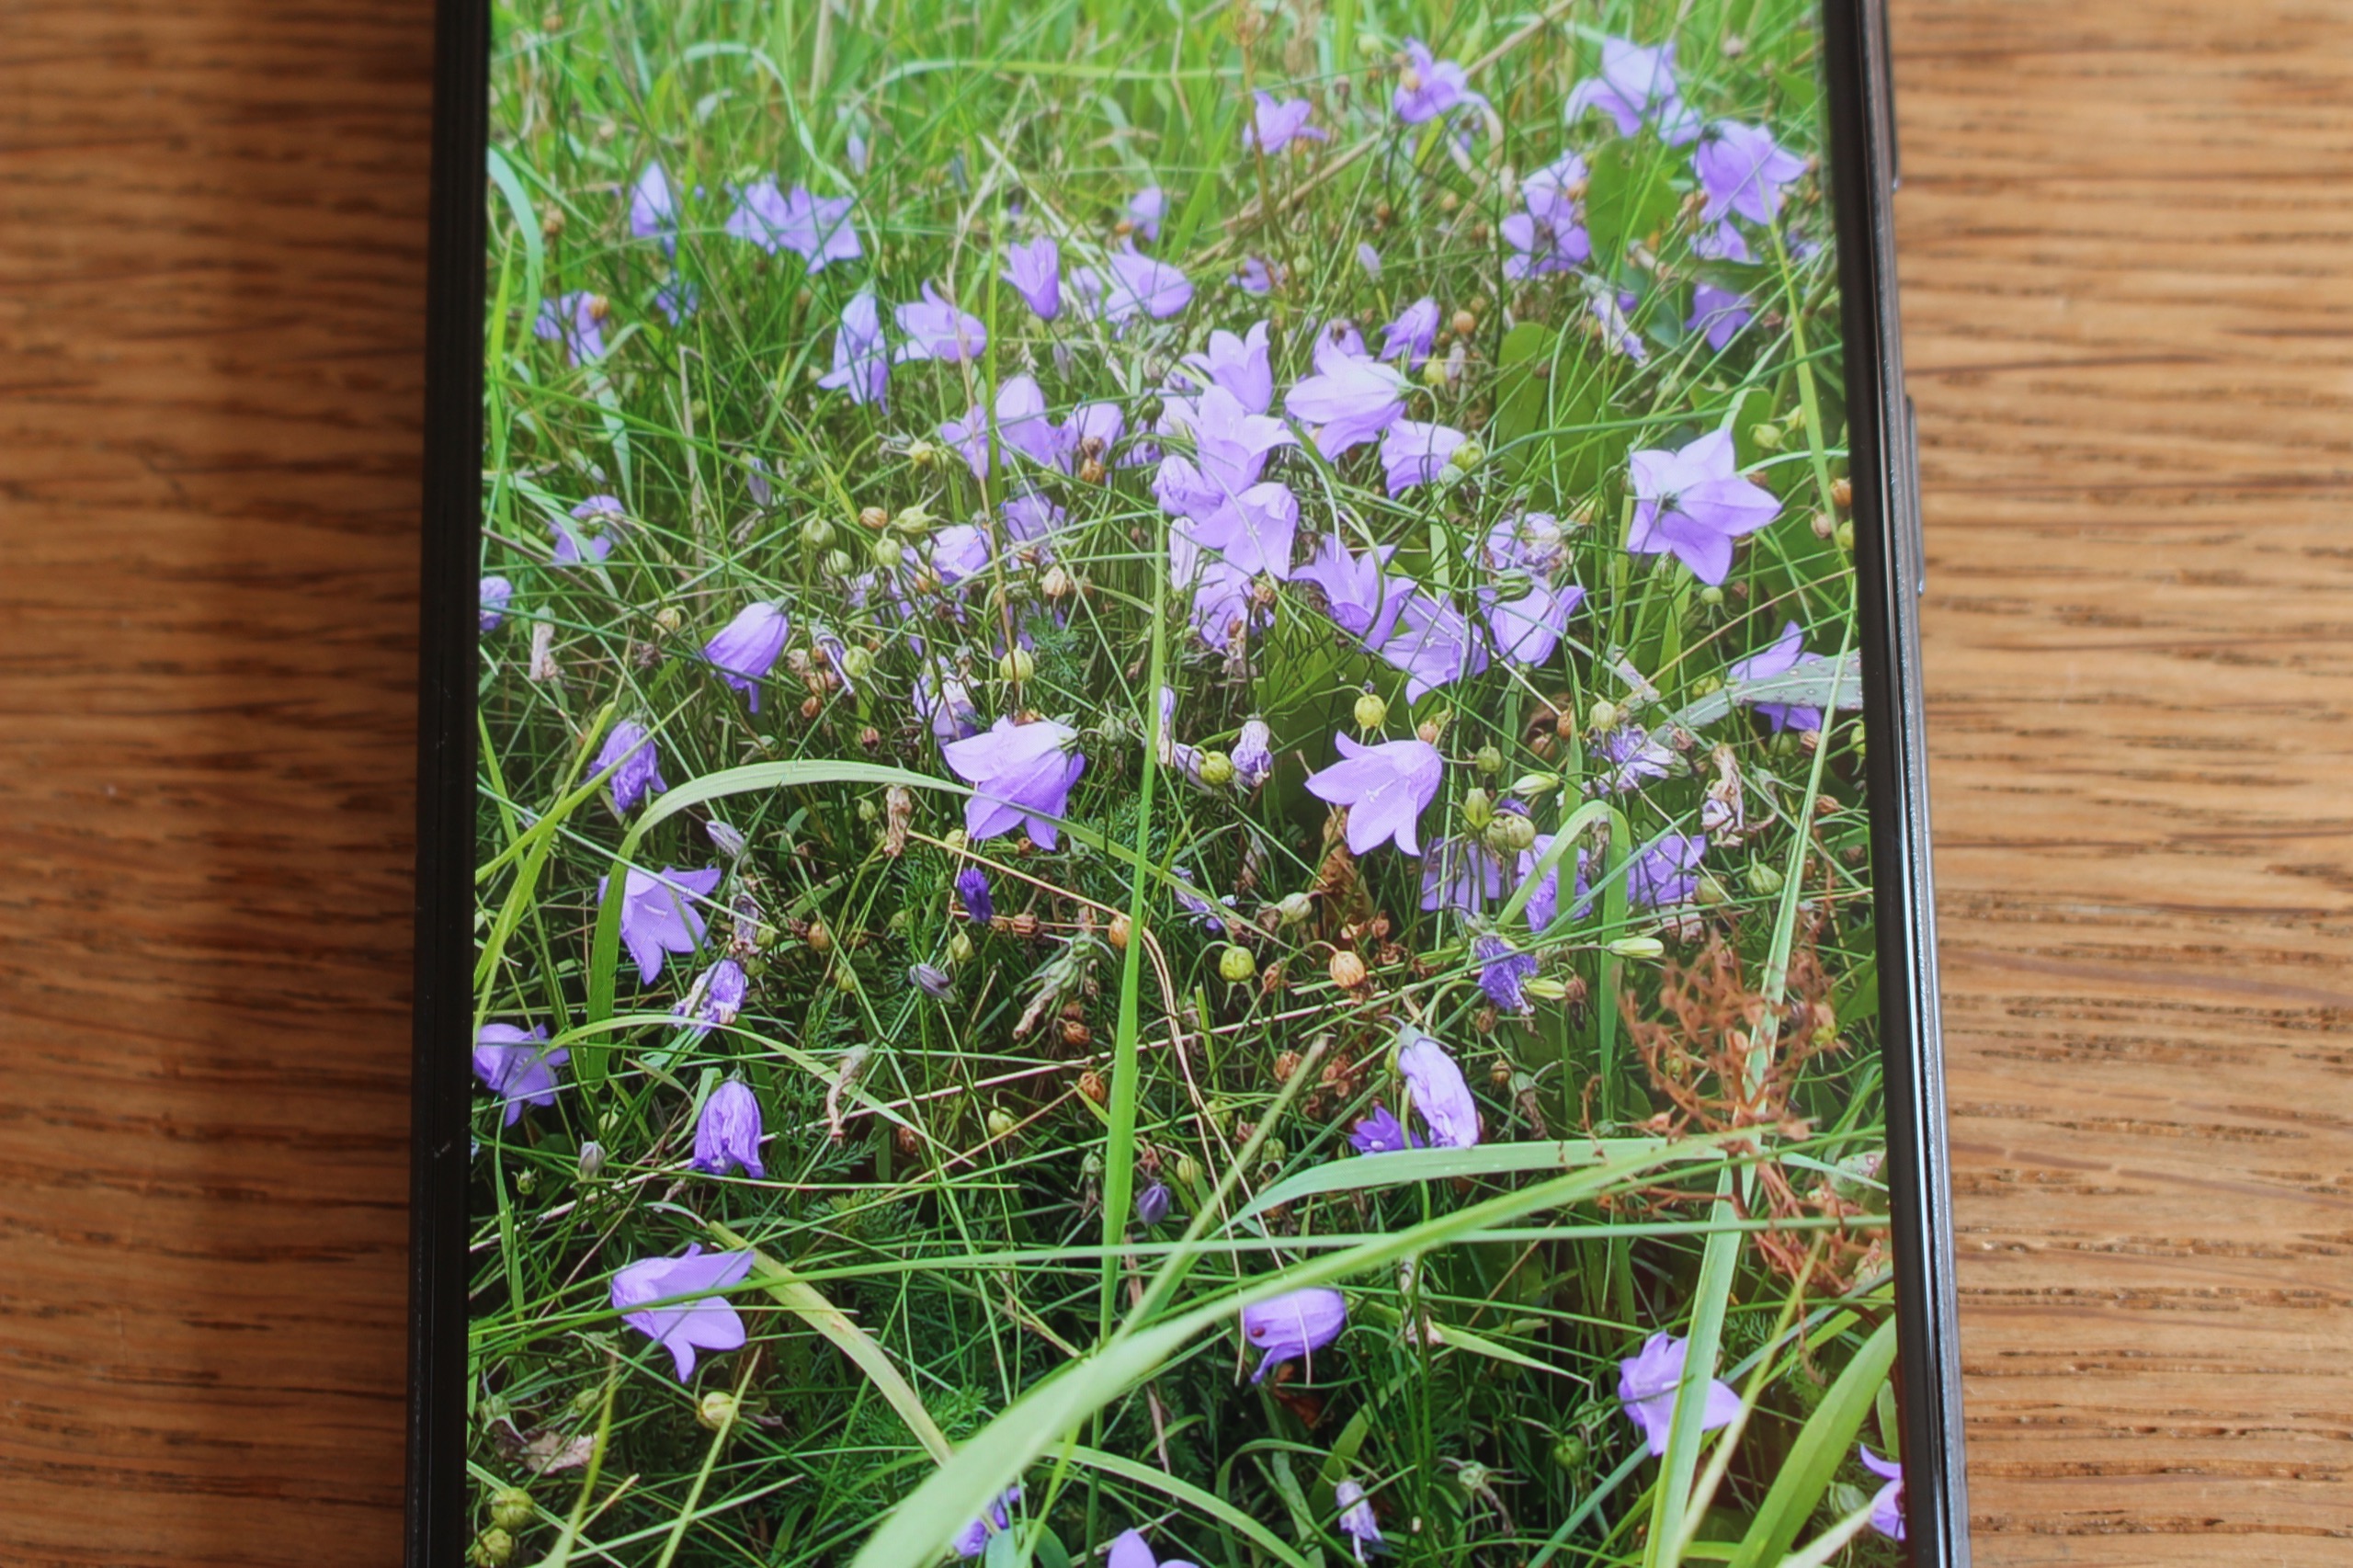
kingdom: Plantae
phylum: Tracheophyta
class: Magnoliopsida
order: Asterales
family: Campanulaceae
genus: Campanula
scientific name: Campanula rotundifolia
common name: Liden klokke
